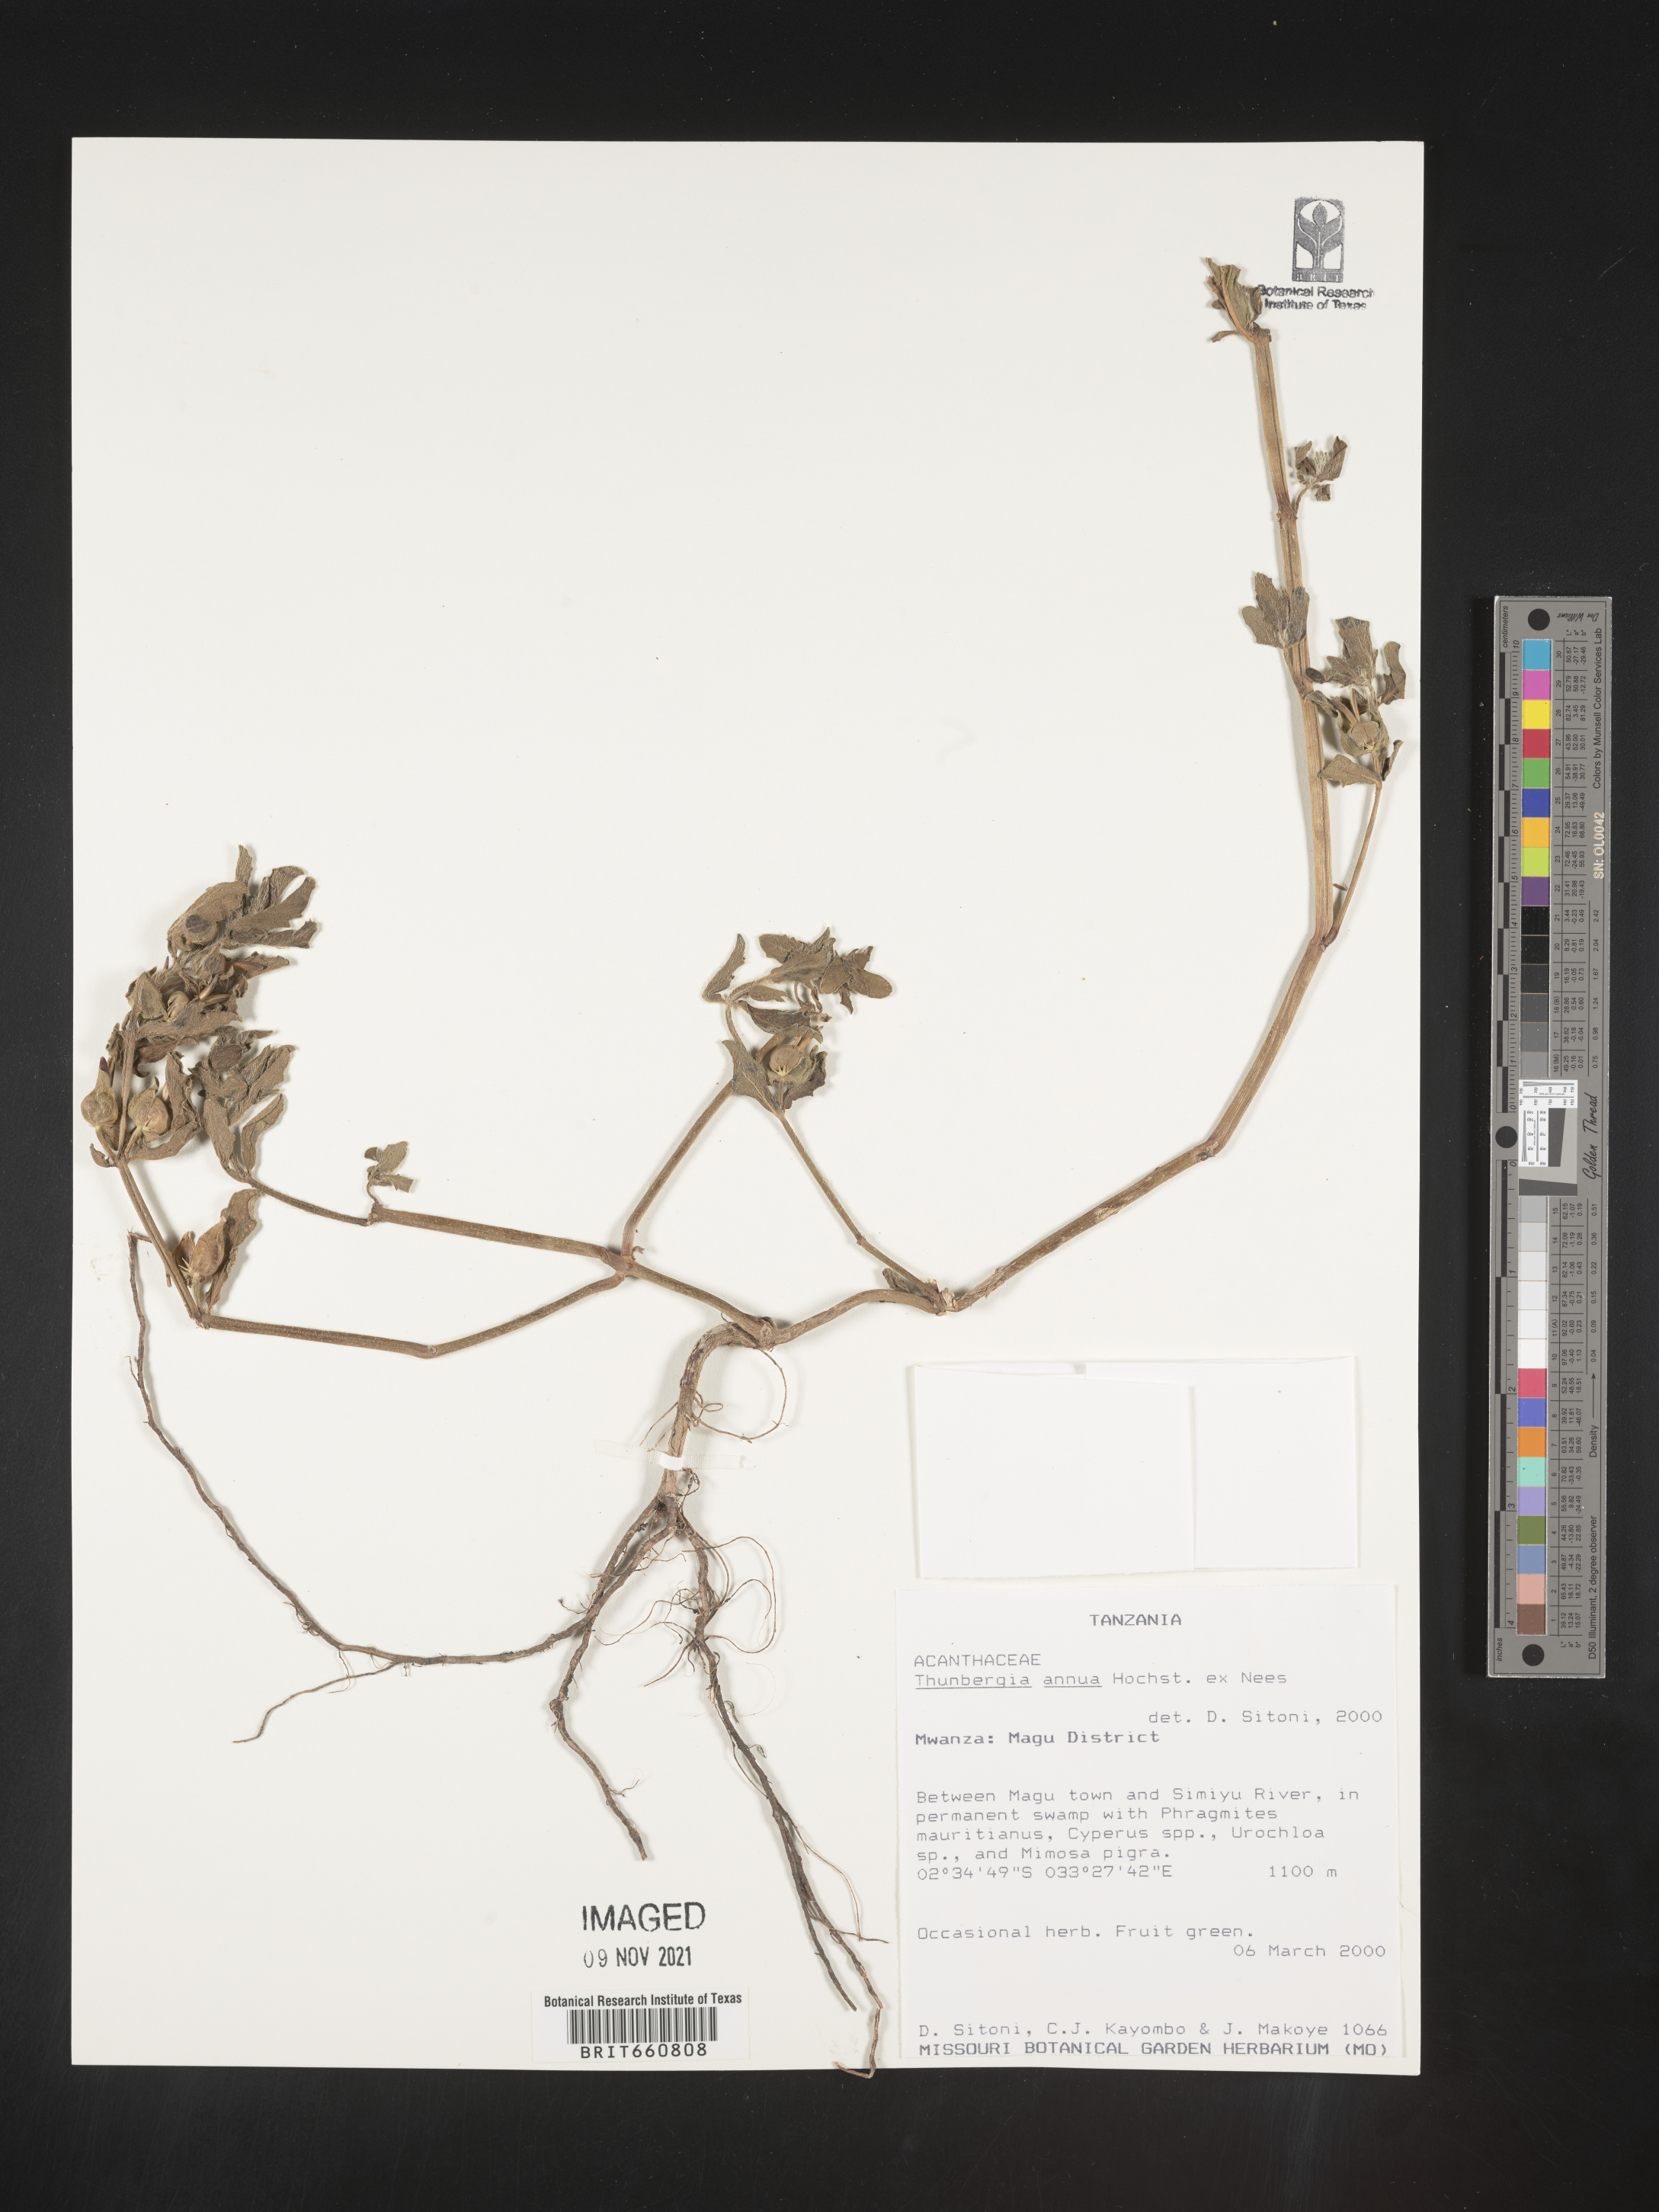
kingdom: Plantae
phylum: Tracheophyta
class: Magnoliopsida
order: Lamiales
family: Acanthaceae
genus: Thunbergia
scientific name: Thunbergia
